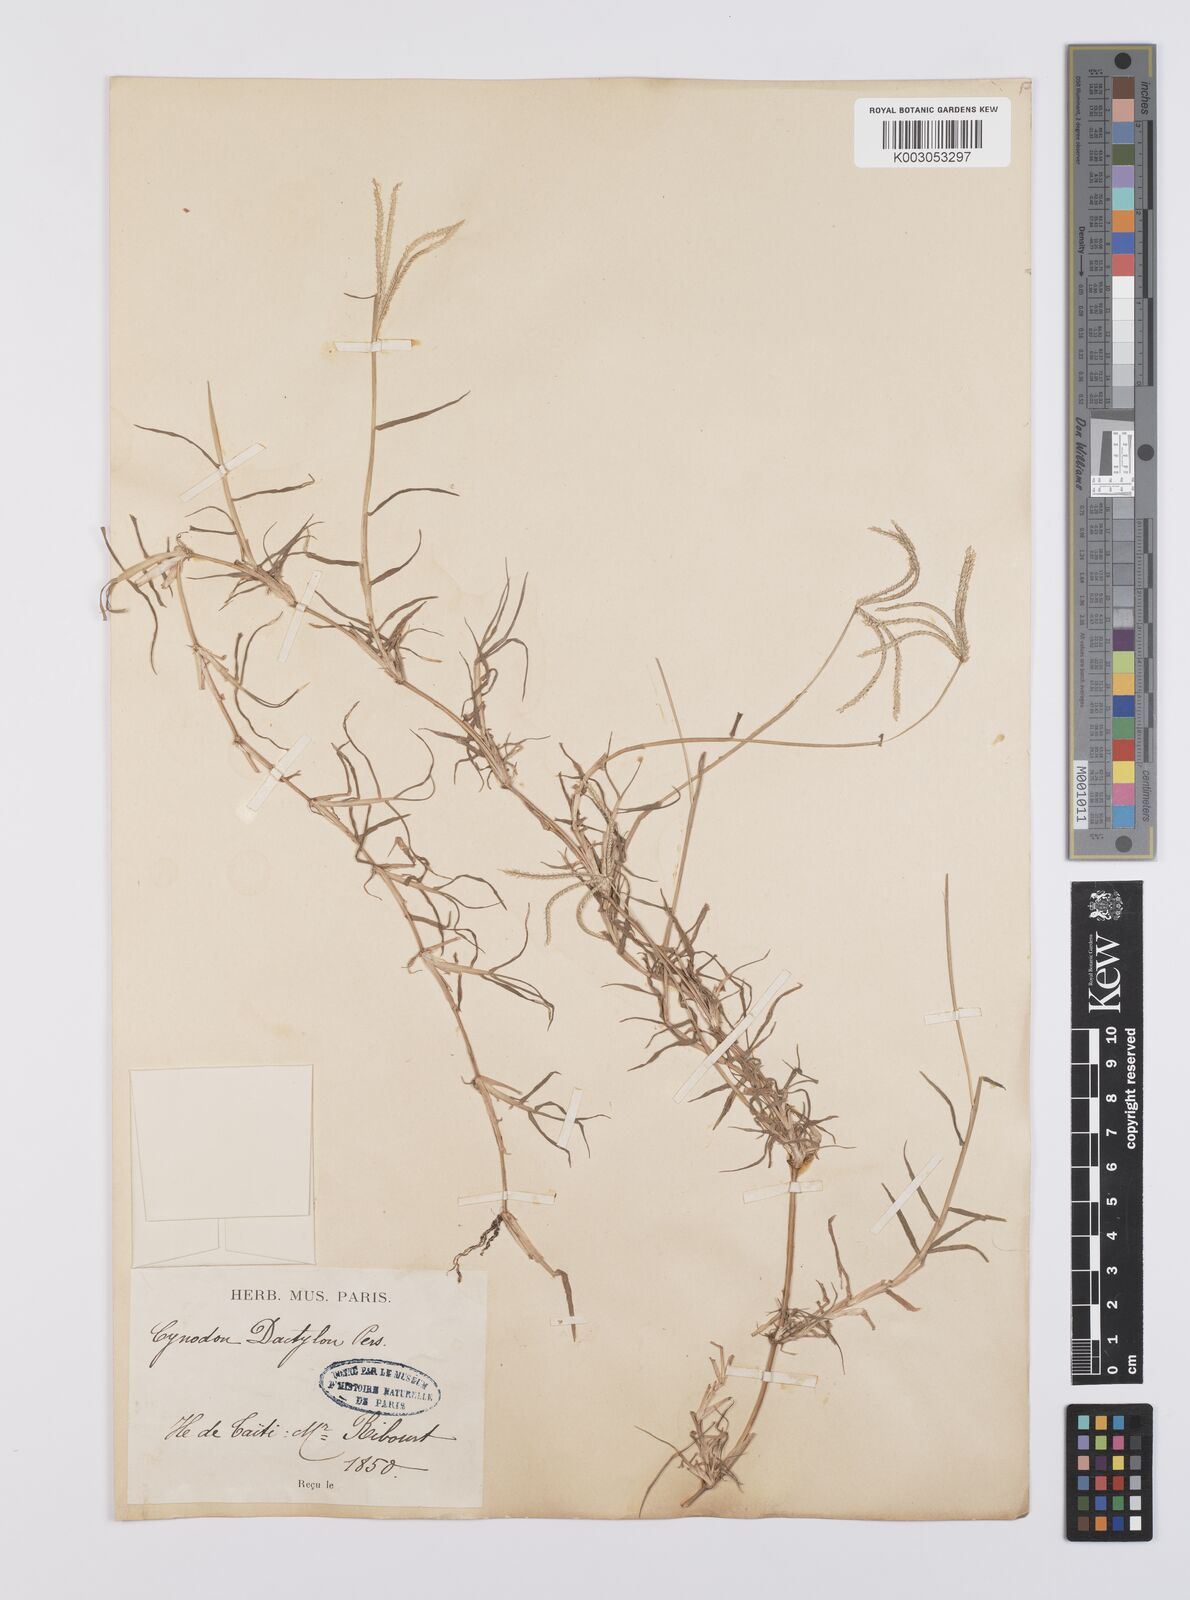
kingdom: Plantae
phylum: Tracheophyta
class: Liliopsida
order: Poales
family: Poaceae
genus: Cynodon
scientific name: Cynodon dactylon
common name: Bermuda grass
